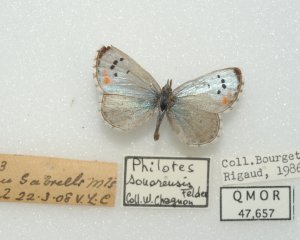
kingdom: Animalia
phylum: Arthropoda
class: Insecta
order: Lepidoptera
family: Lycaenidae
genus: Philotes
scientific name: Philotes sonorensis
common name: Sonoran Blue
